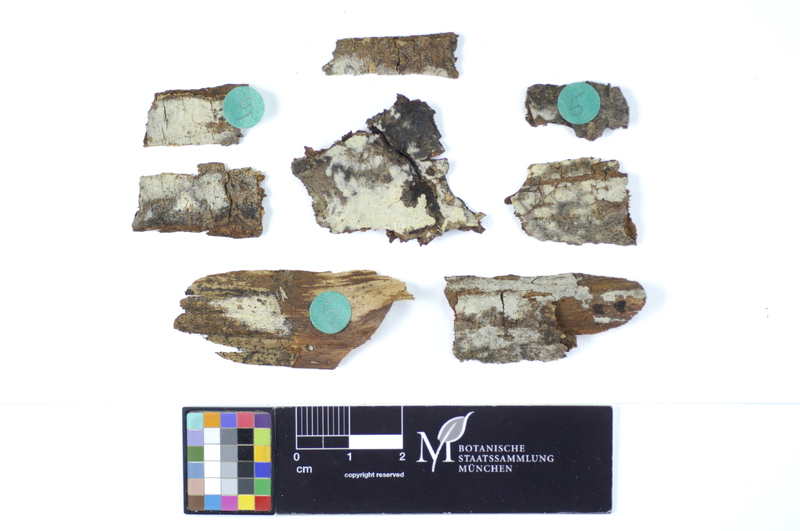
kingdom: Fungi
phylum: Basidiomycota
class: Agaricomycetes
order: Hymenochaetales
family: Rickenellaceae
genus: Peniophorella
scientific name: Peniophorella praetermissa
